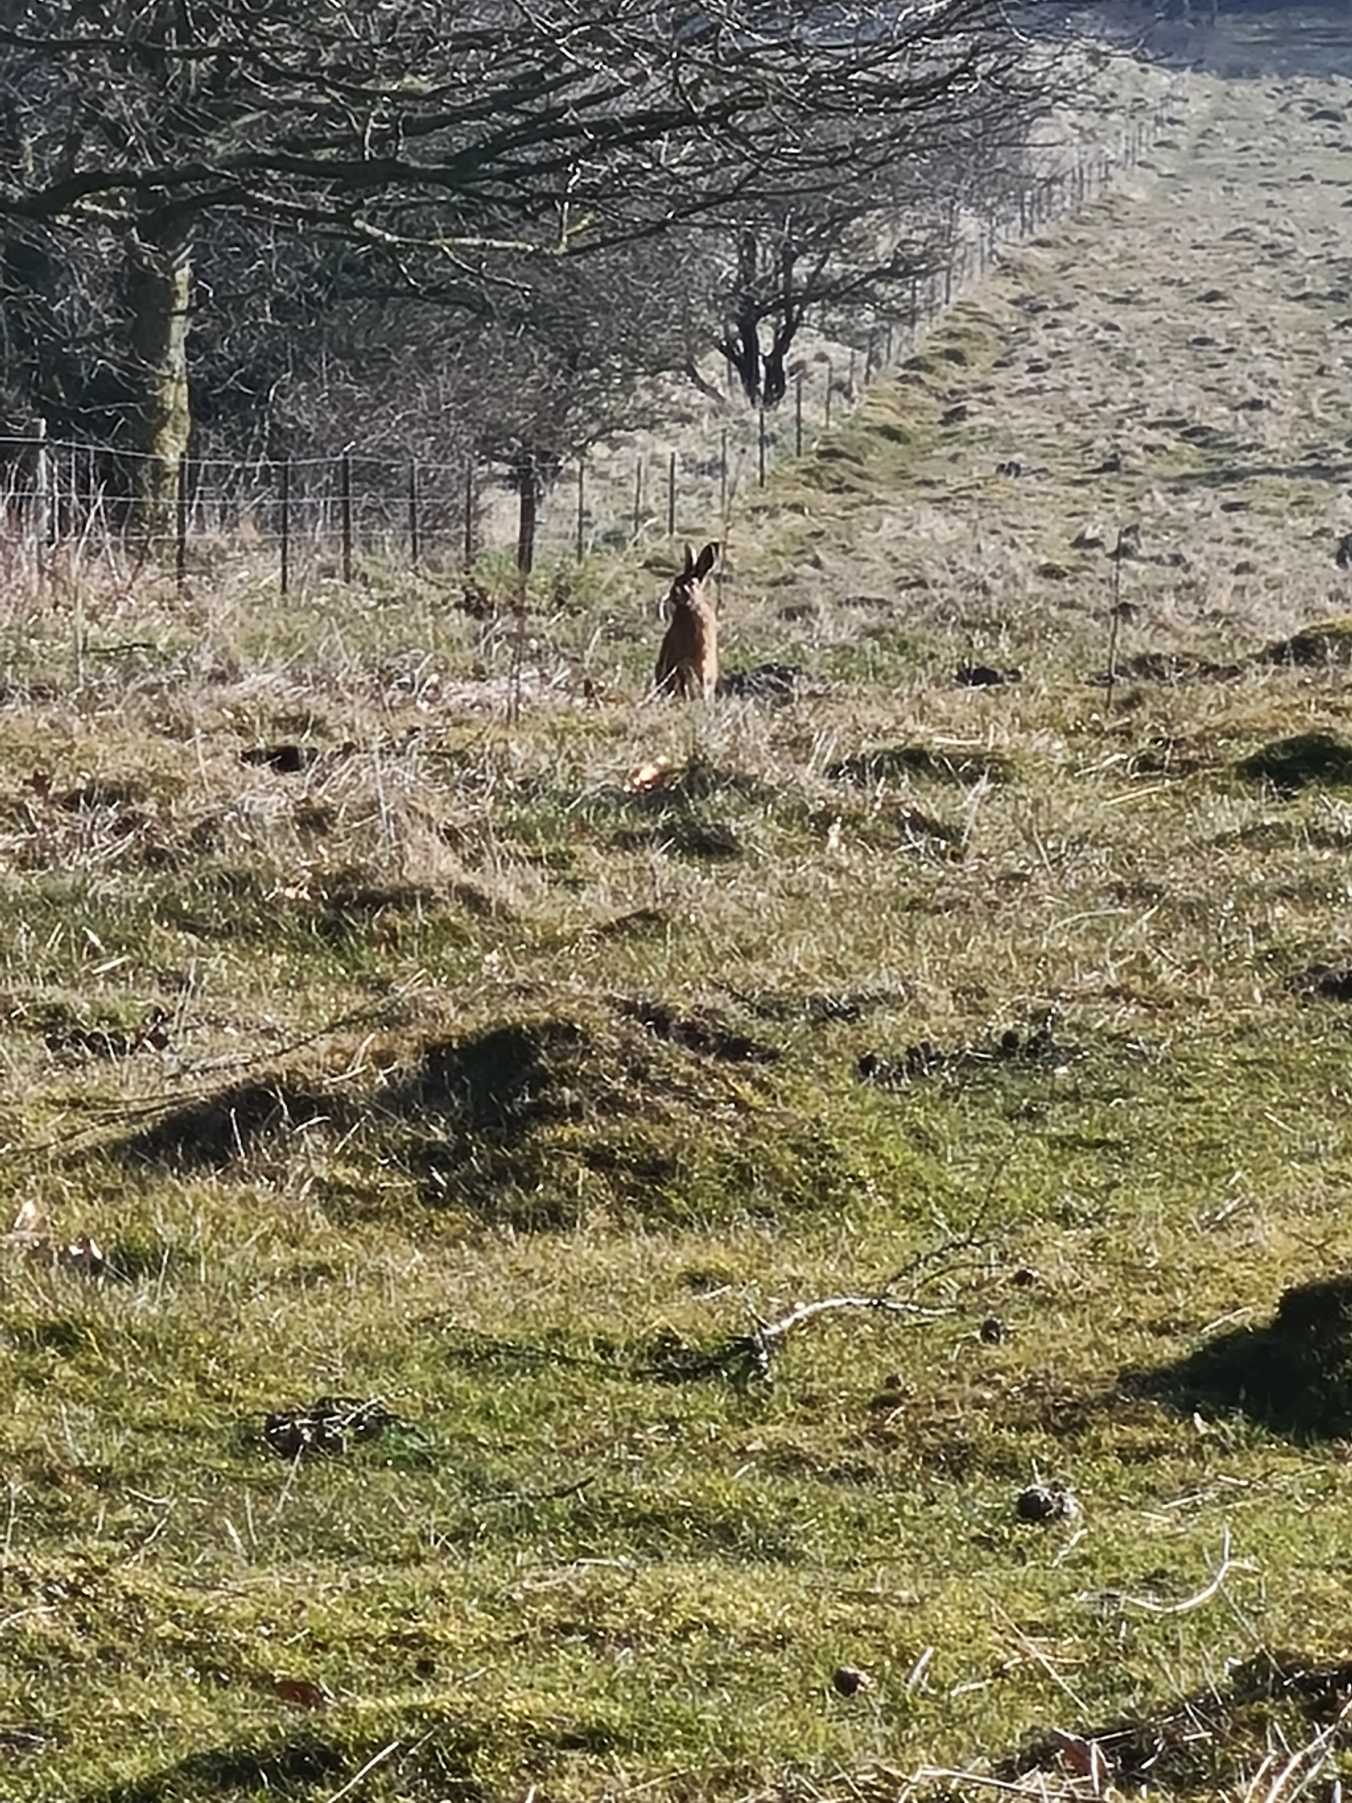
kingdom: Animalia
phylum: Chordata
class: Mammalia
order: Lagomorpha
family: Leporidae
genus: Lepus
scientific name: Lepus europaeus
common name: Hare
